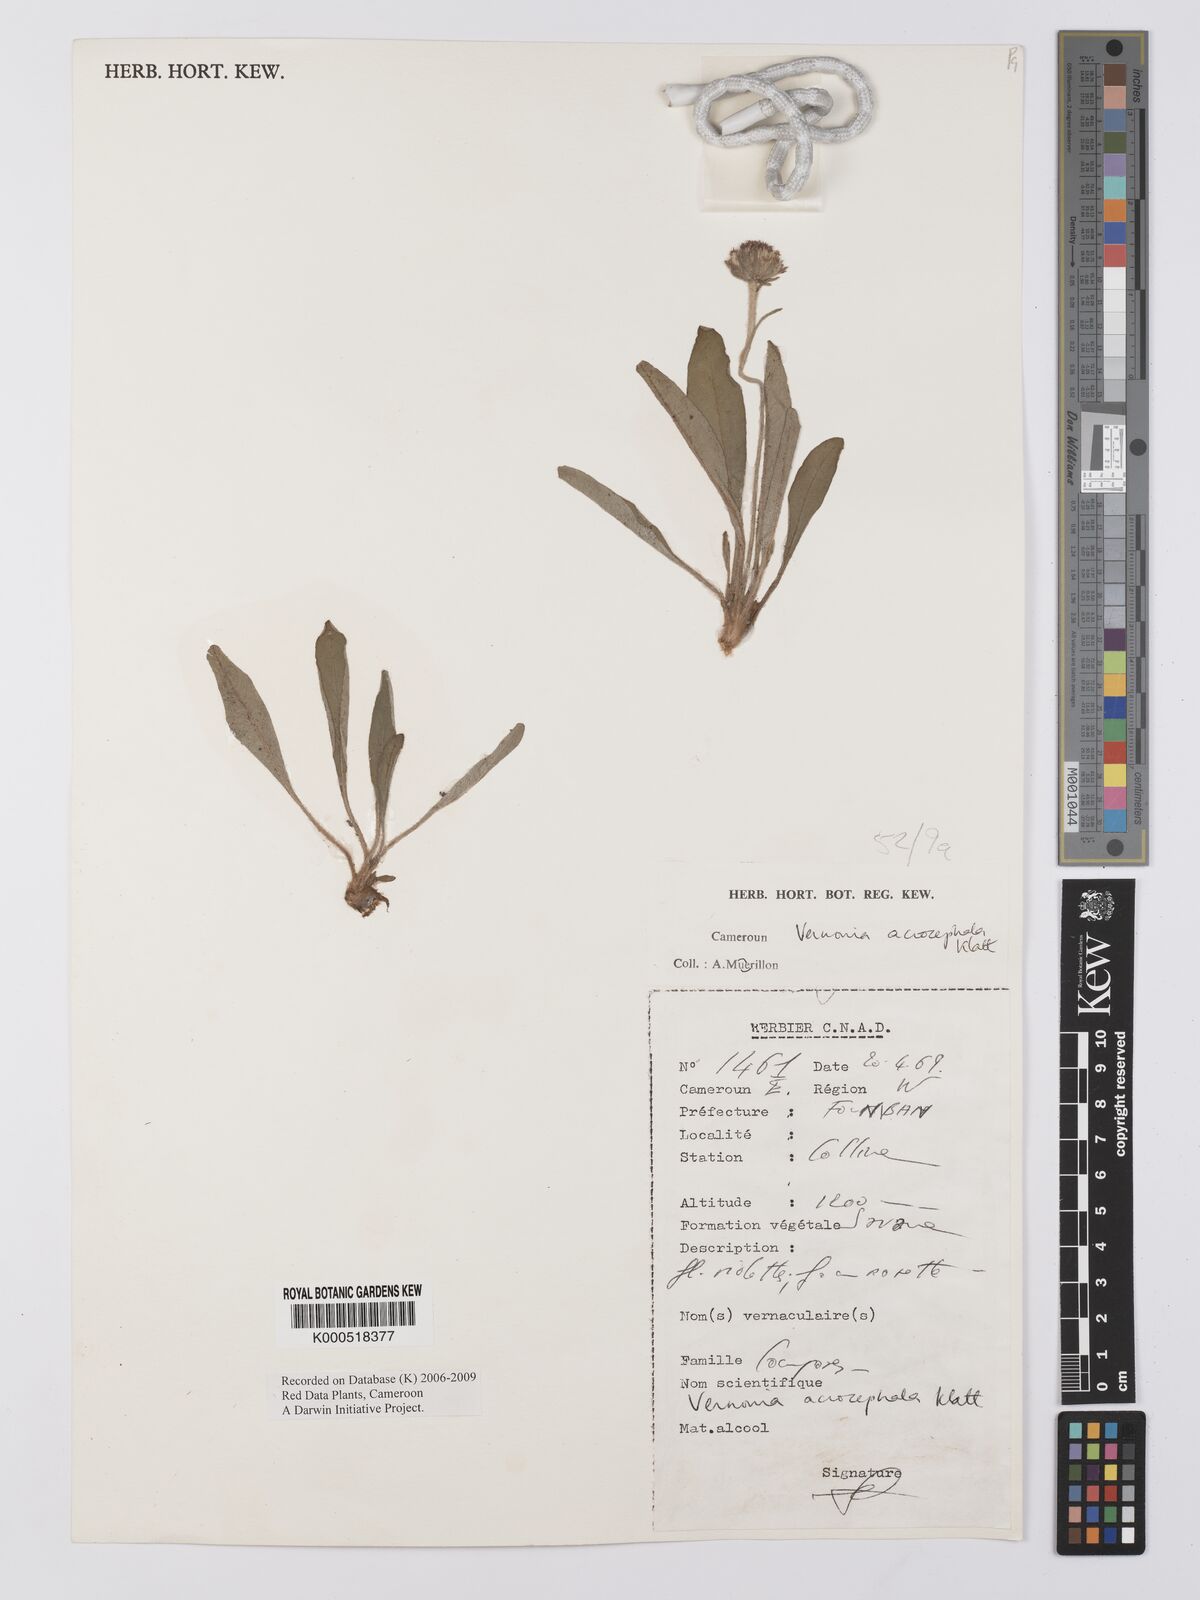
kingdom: Plantae
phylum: Tracheophyta
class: Magnoliopsida
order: Asterales
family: Asteraceae
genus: Vernonella
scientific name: Vernonella acrocephala
